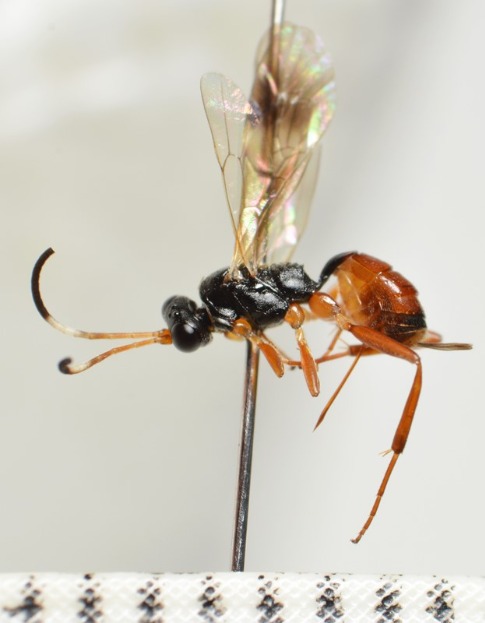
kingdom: Animalia
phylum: Arthropoda
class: Insecta
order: Hymenoptera
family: Ichneumonidae
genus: Orthizema
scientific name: Orthizema subannulatum
